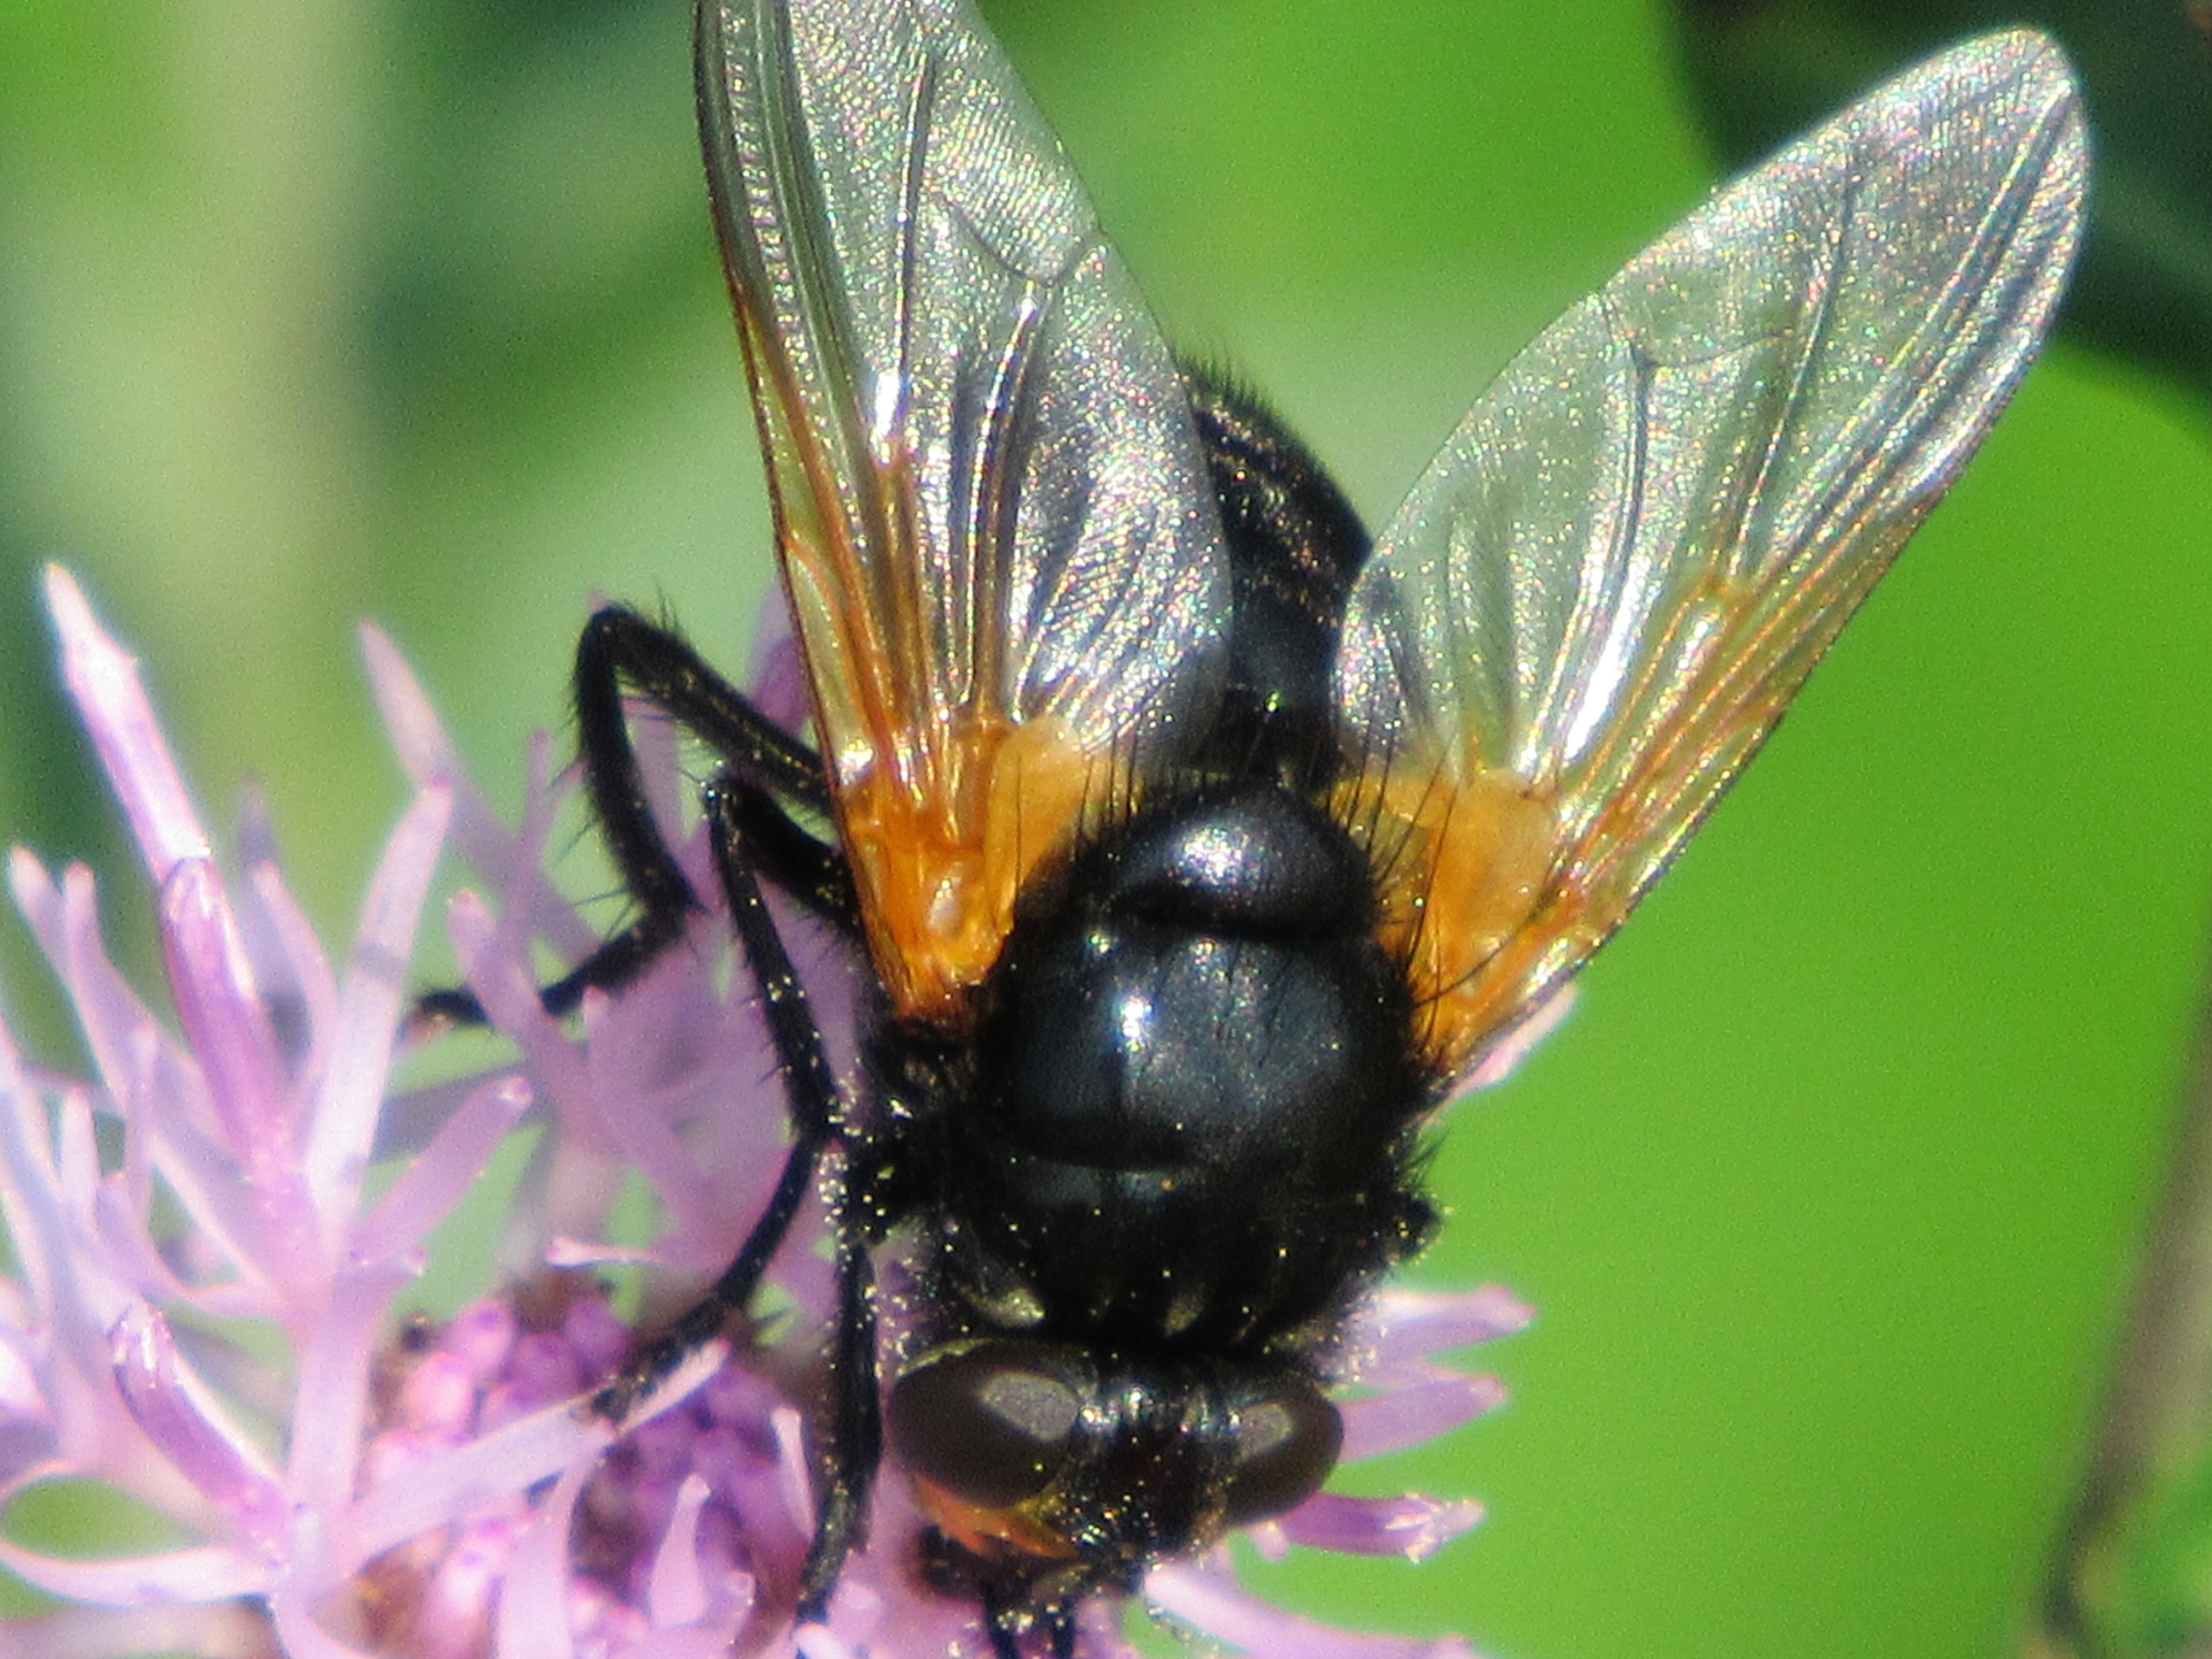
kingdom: Animalia
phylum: Arthropoda
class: Insecta
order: Diptera
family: Muscidae
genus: Mesembrina
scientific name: Mesembrina meridiana
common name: Gulvinget flue
